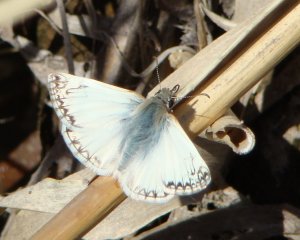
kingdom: Animalia
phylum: Arthropoda
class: Insecta
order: Lepidoptera
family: Hesperiidae
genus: Heliopetes
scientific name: Heliopetes ericetorum
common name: Northern White-Skipper
